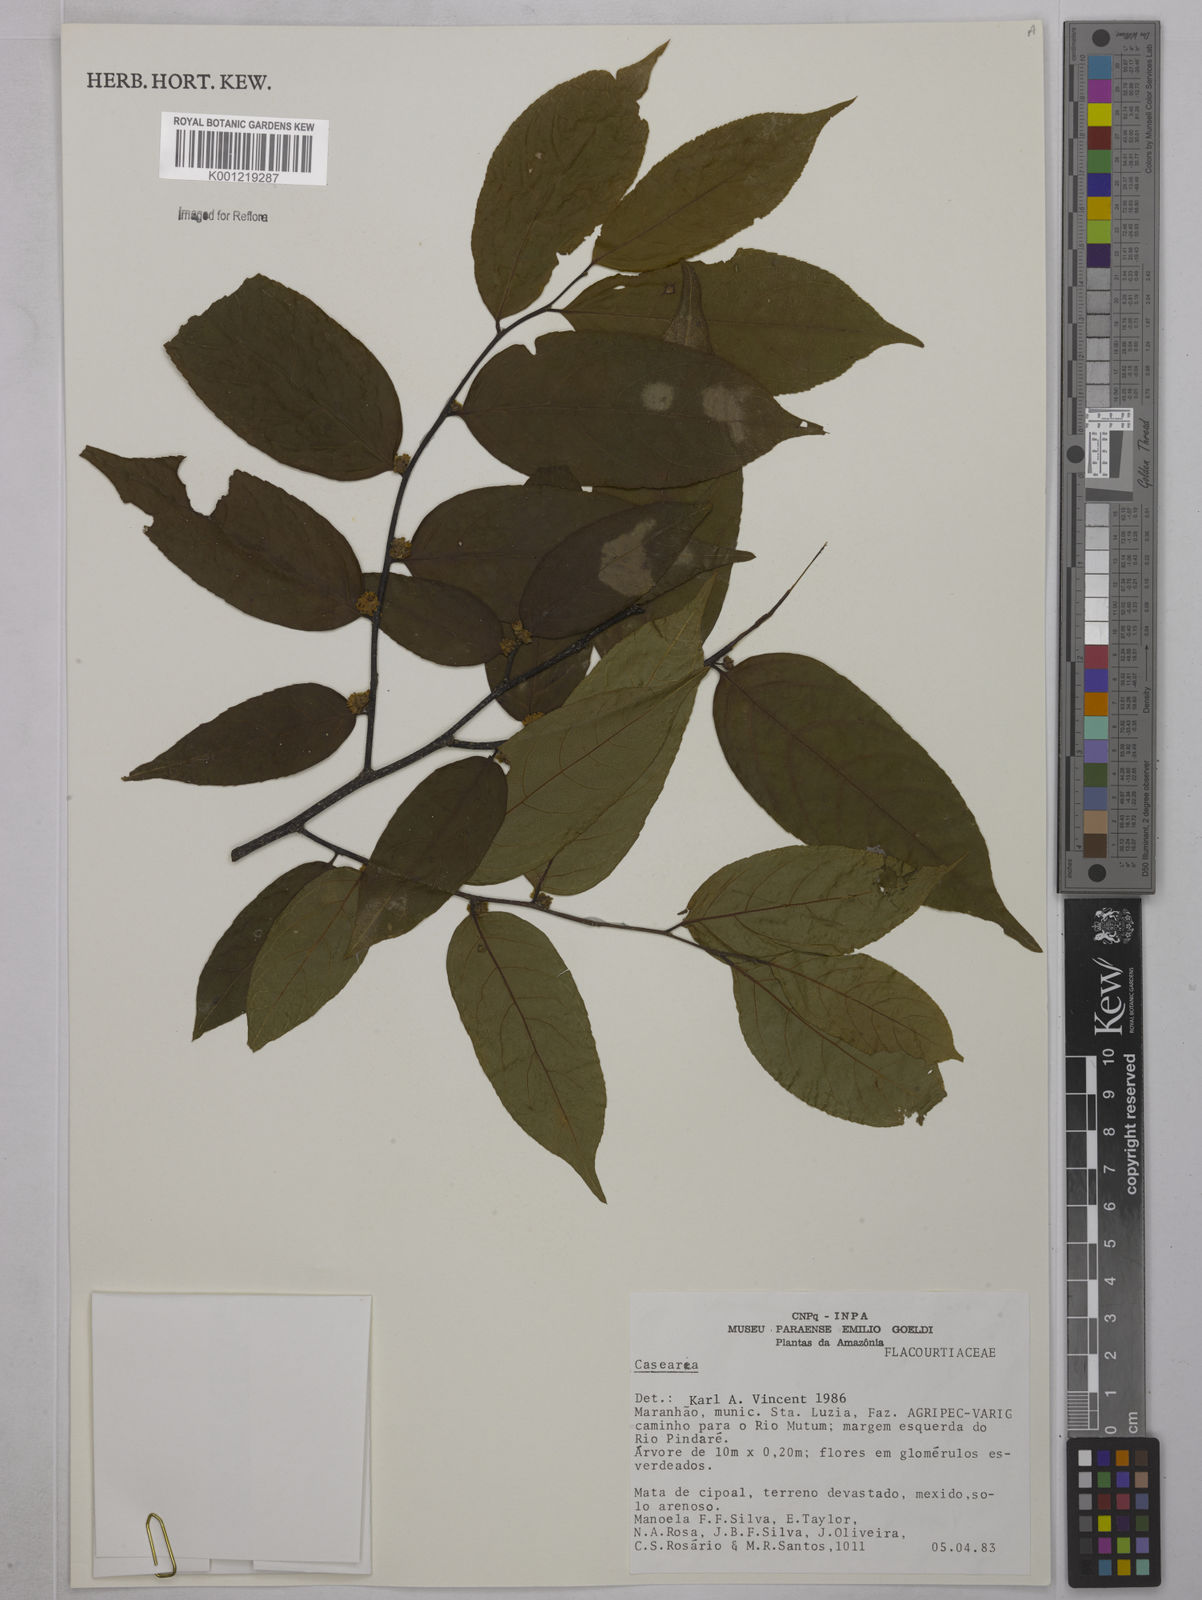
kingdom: Plantae
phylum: Tracheophyta
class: Magnoliopsida
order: Malpighiales
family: Salicaceae
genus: Casearia
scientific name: Casearia
